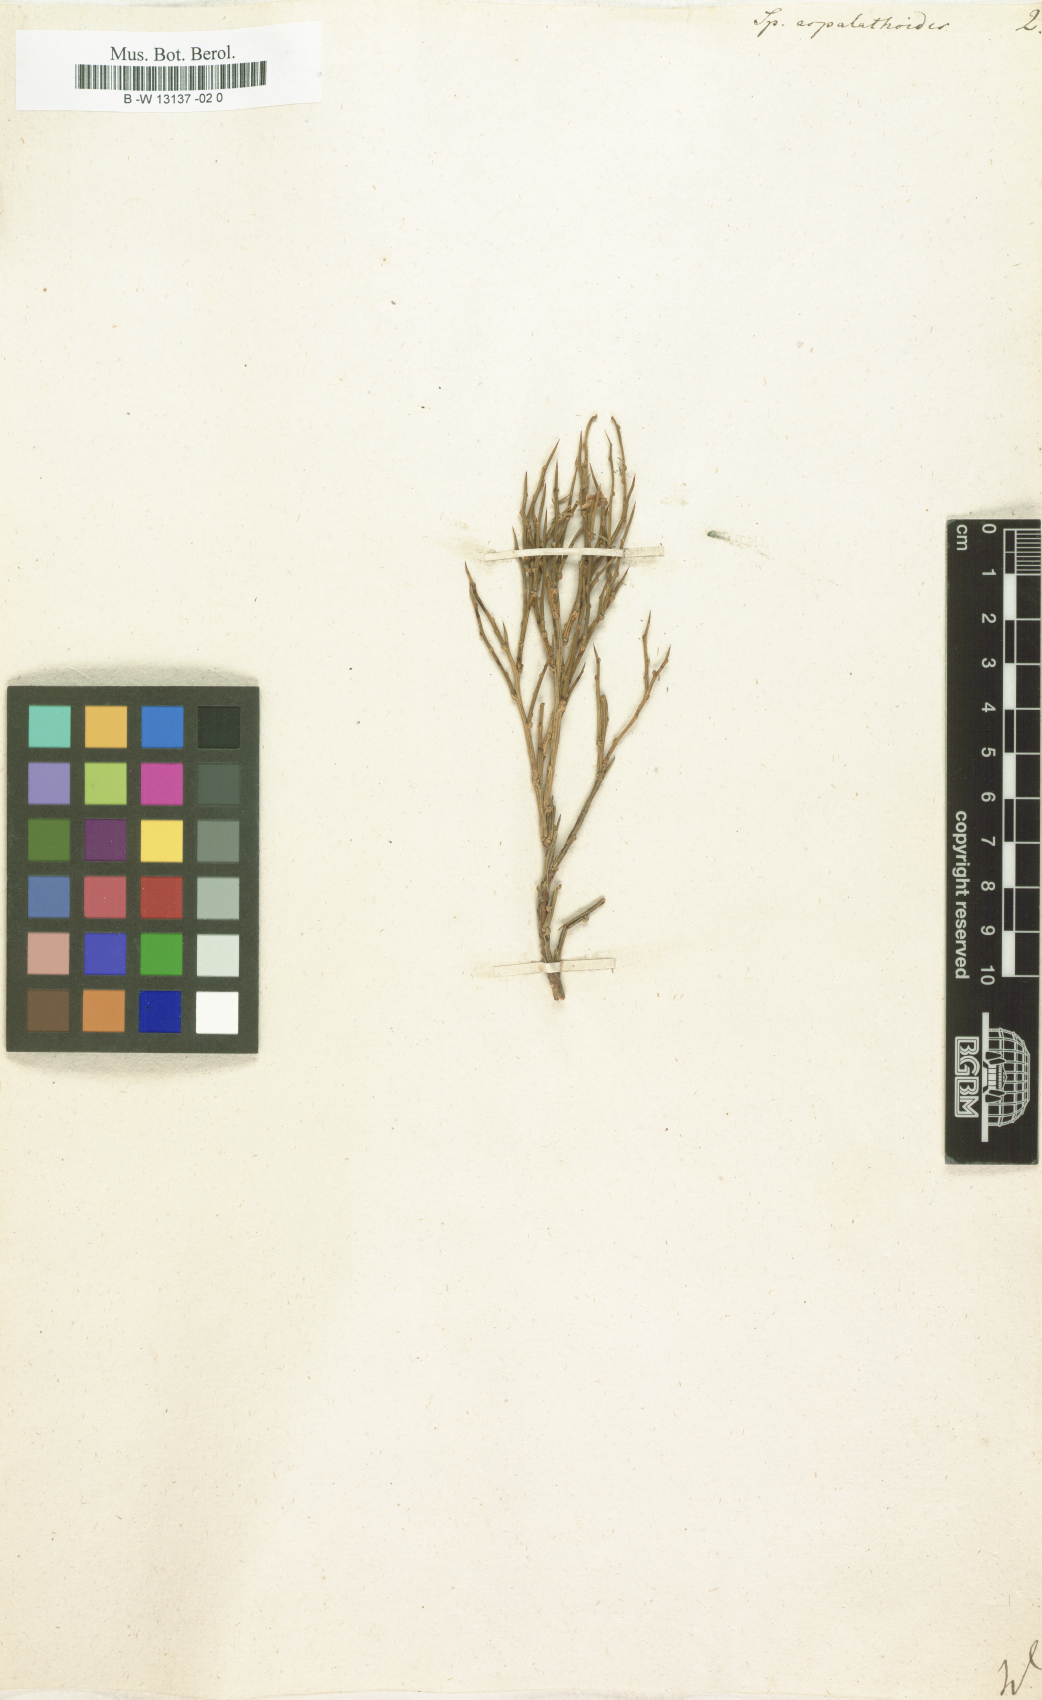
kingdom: Plantae
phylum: Tracheophyta
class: Magnoliopsida
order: Fabales
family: Fabaceae
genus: Genista
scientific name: Genista aspalathoides
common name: Broom of pantelleria
